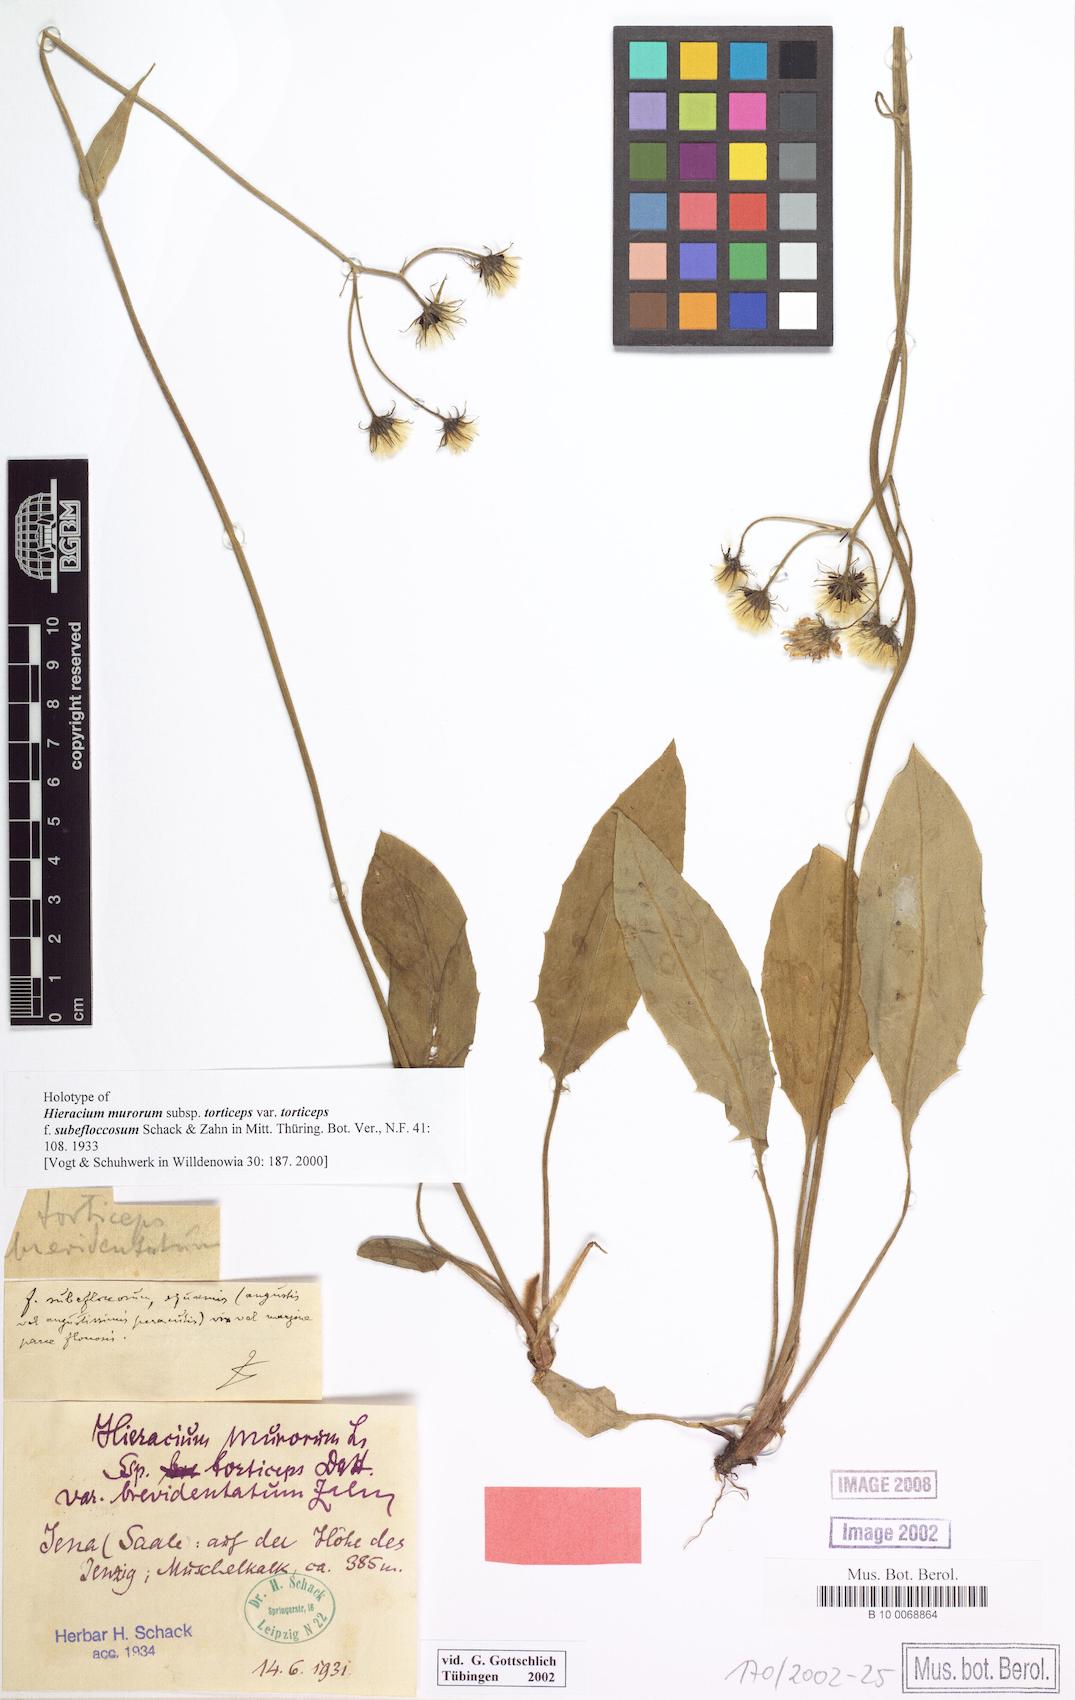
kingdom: Plantae
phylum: Tracheophyta
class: Magnoliopsida
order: Asterales
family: Asteraceae
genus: Hieracium
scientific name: Hieracium murorum
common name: Wall hawkweed
